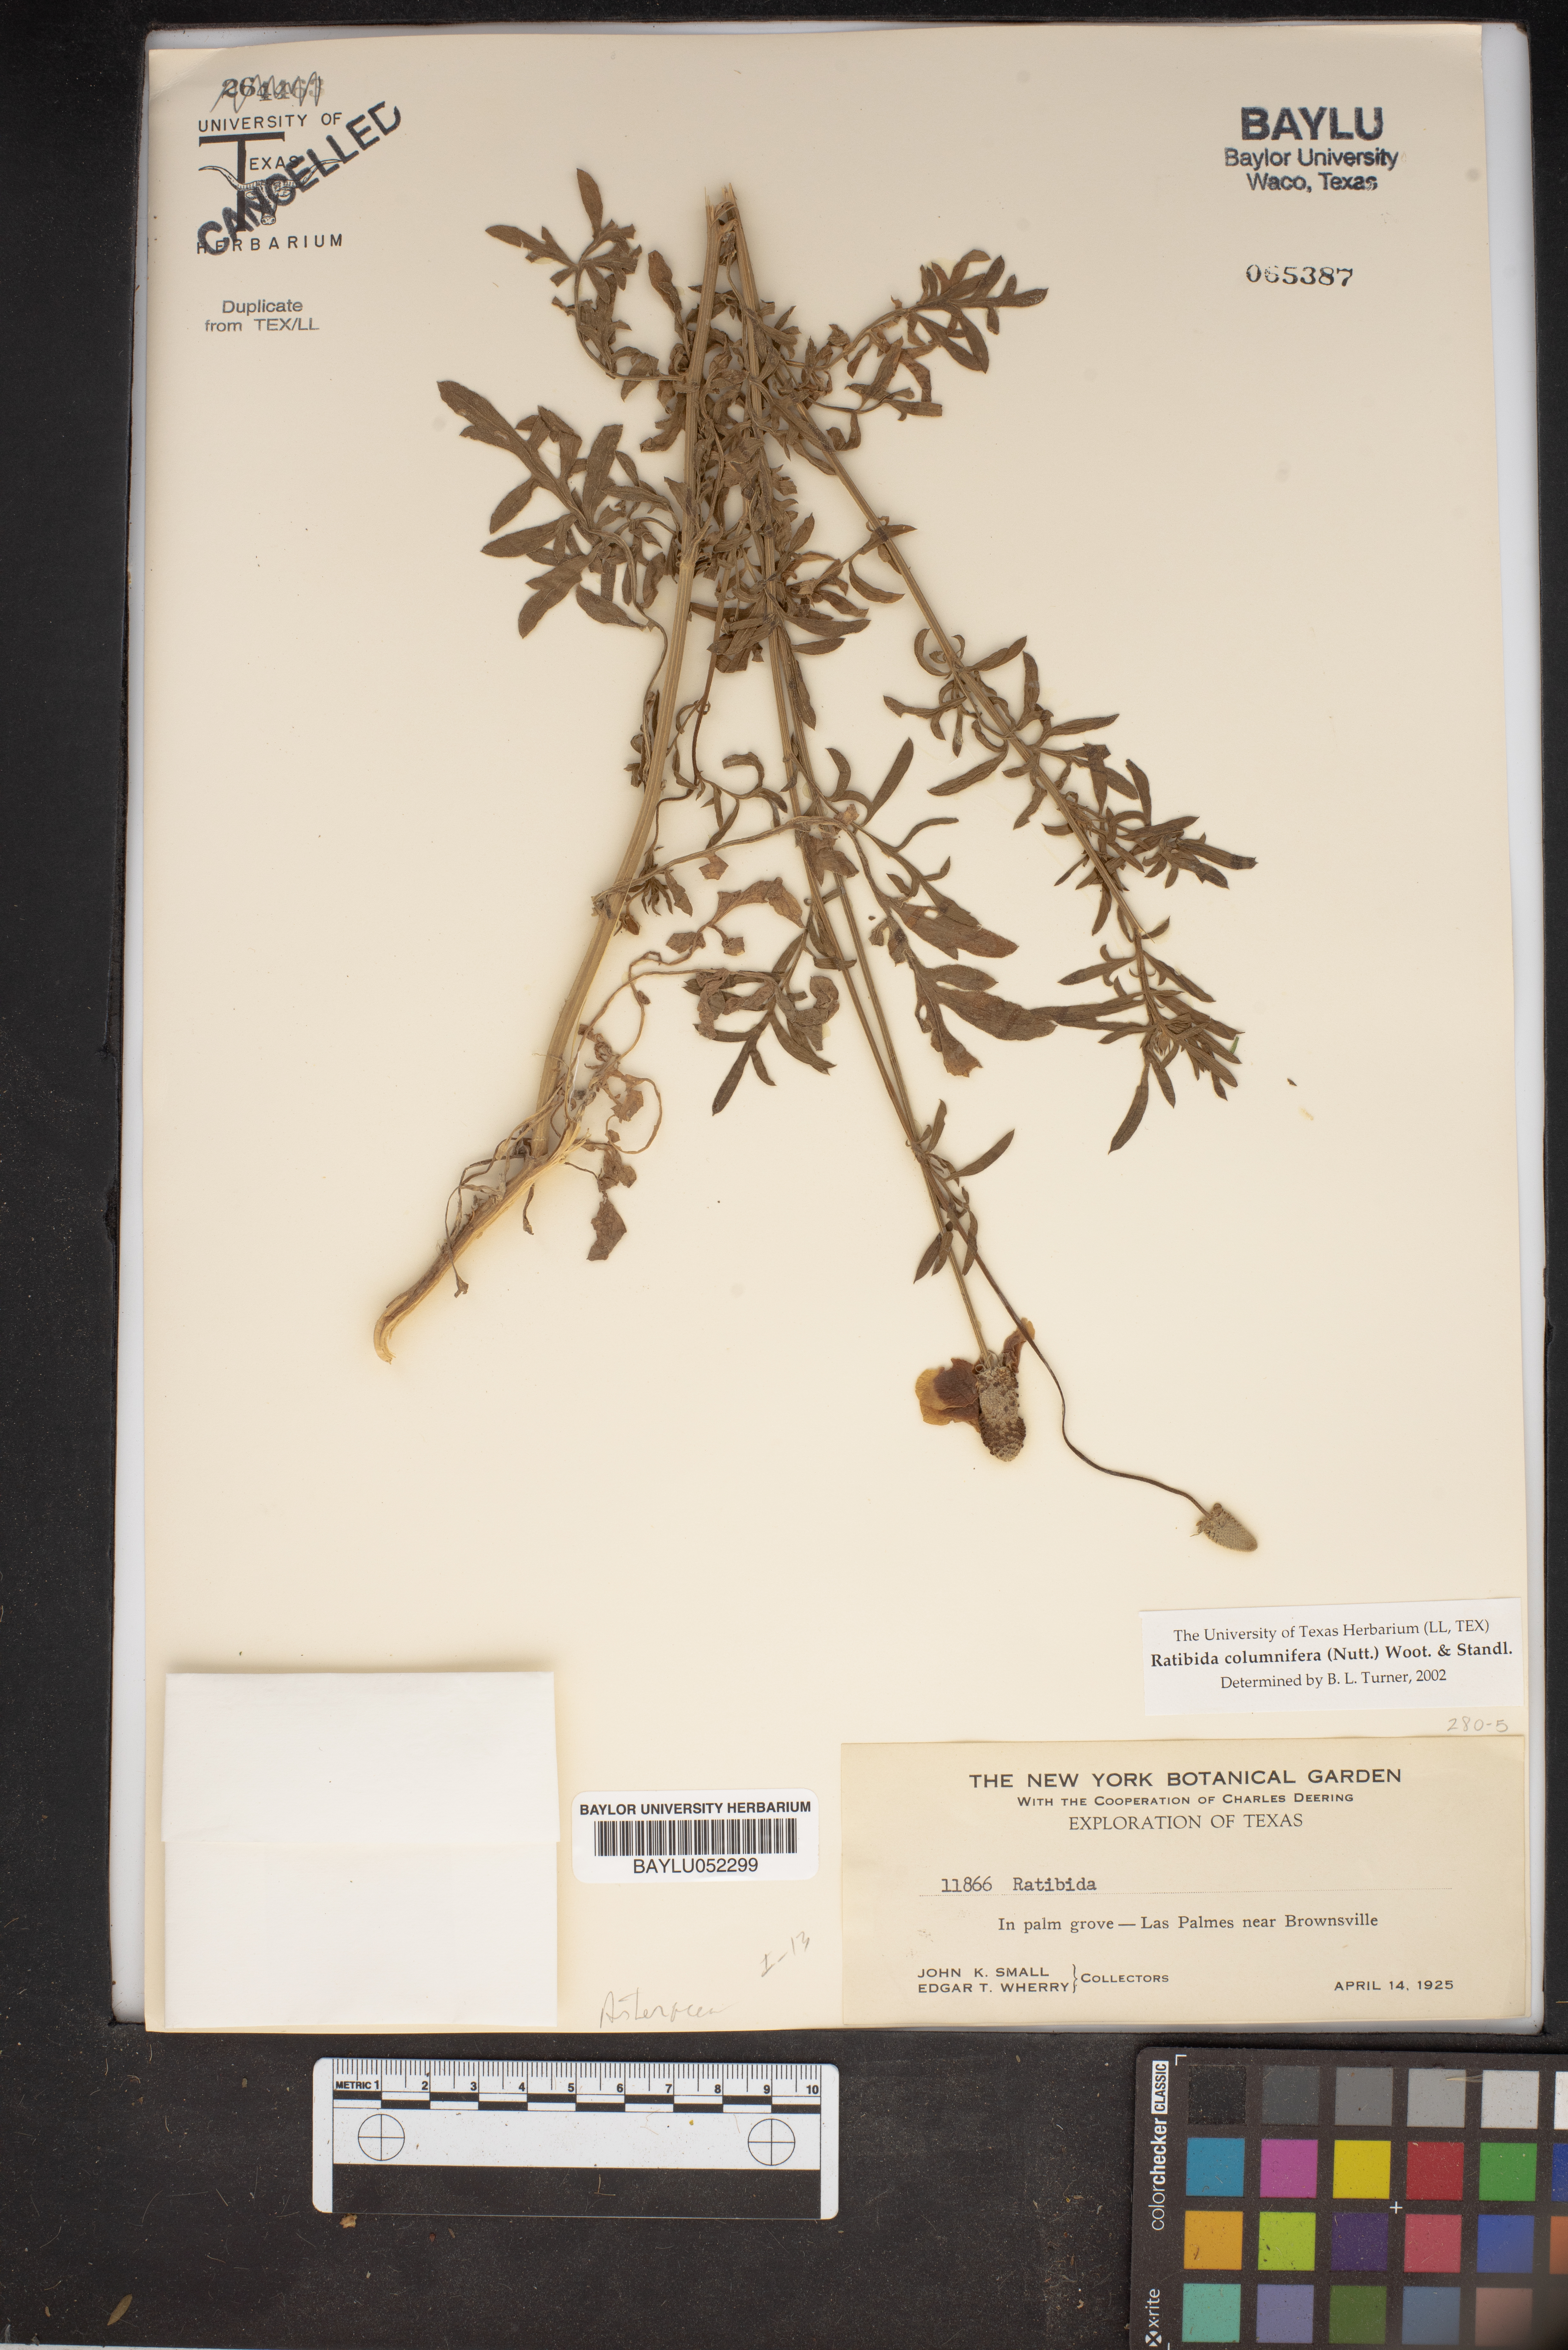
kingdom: Plantae
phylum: Tracheophyta
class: Magnoliopsida
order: Asterales
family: Asteraceae
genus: Ratibida
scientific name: Ratibida columnifera
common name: Prairie coneflower
